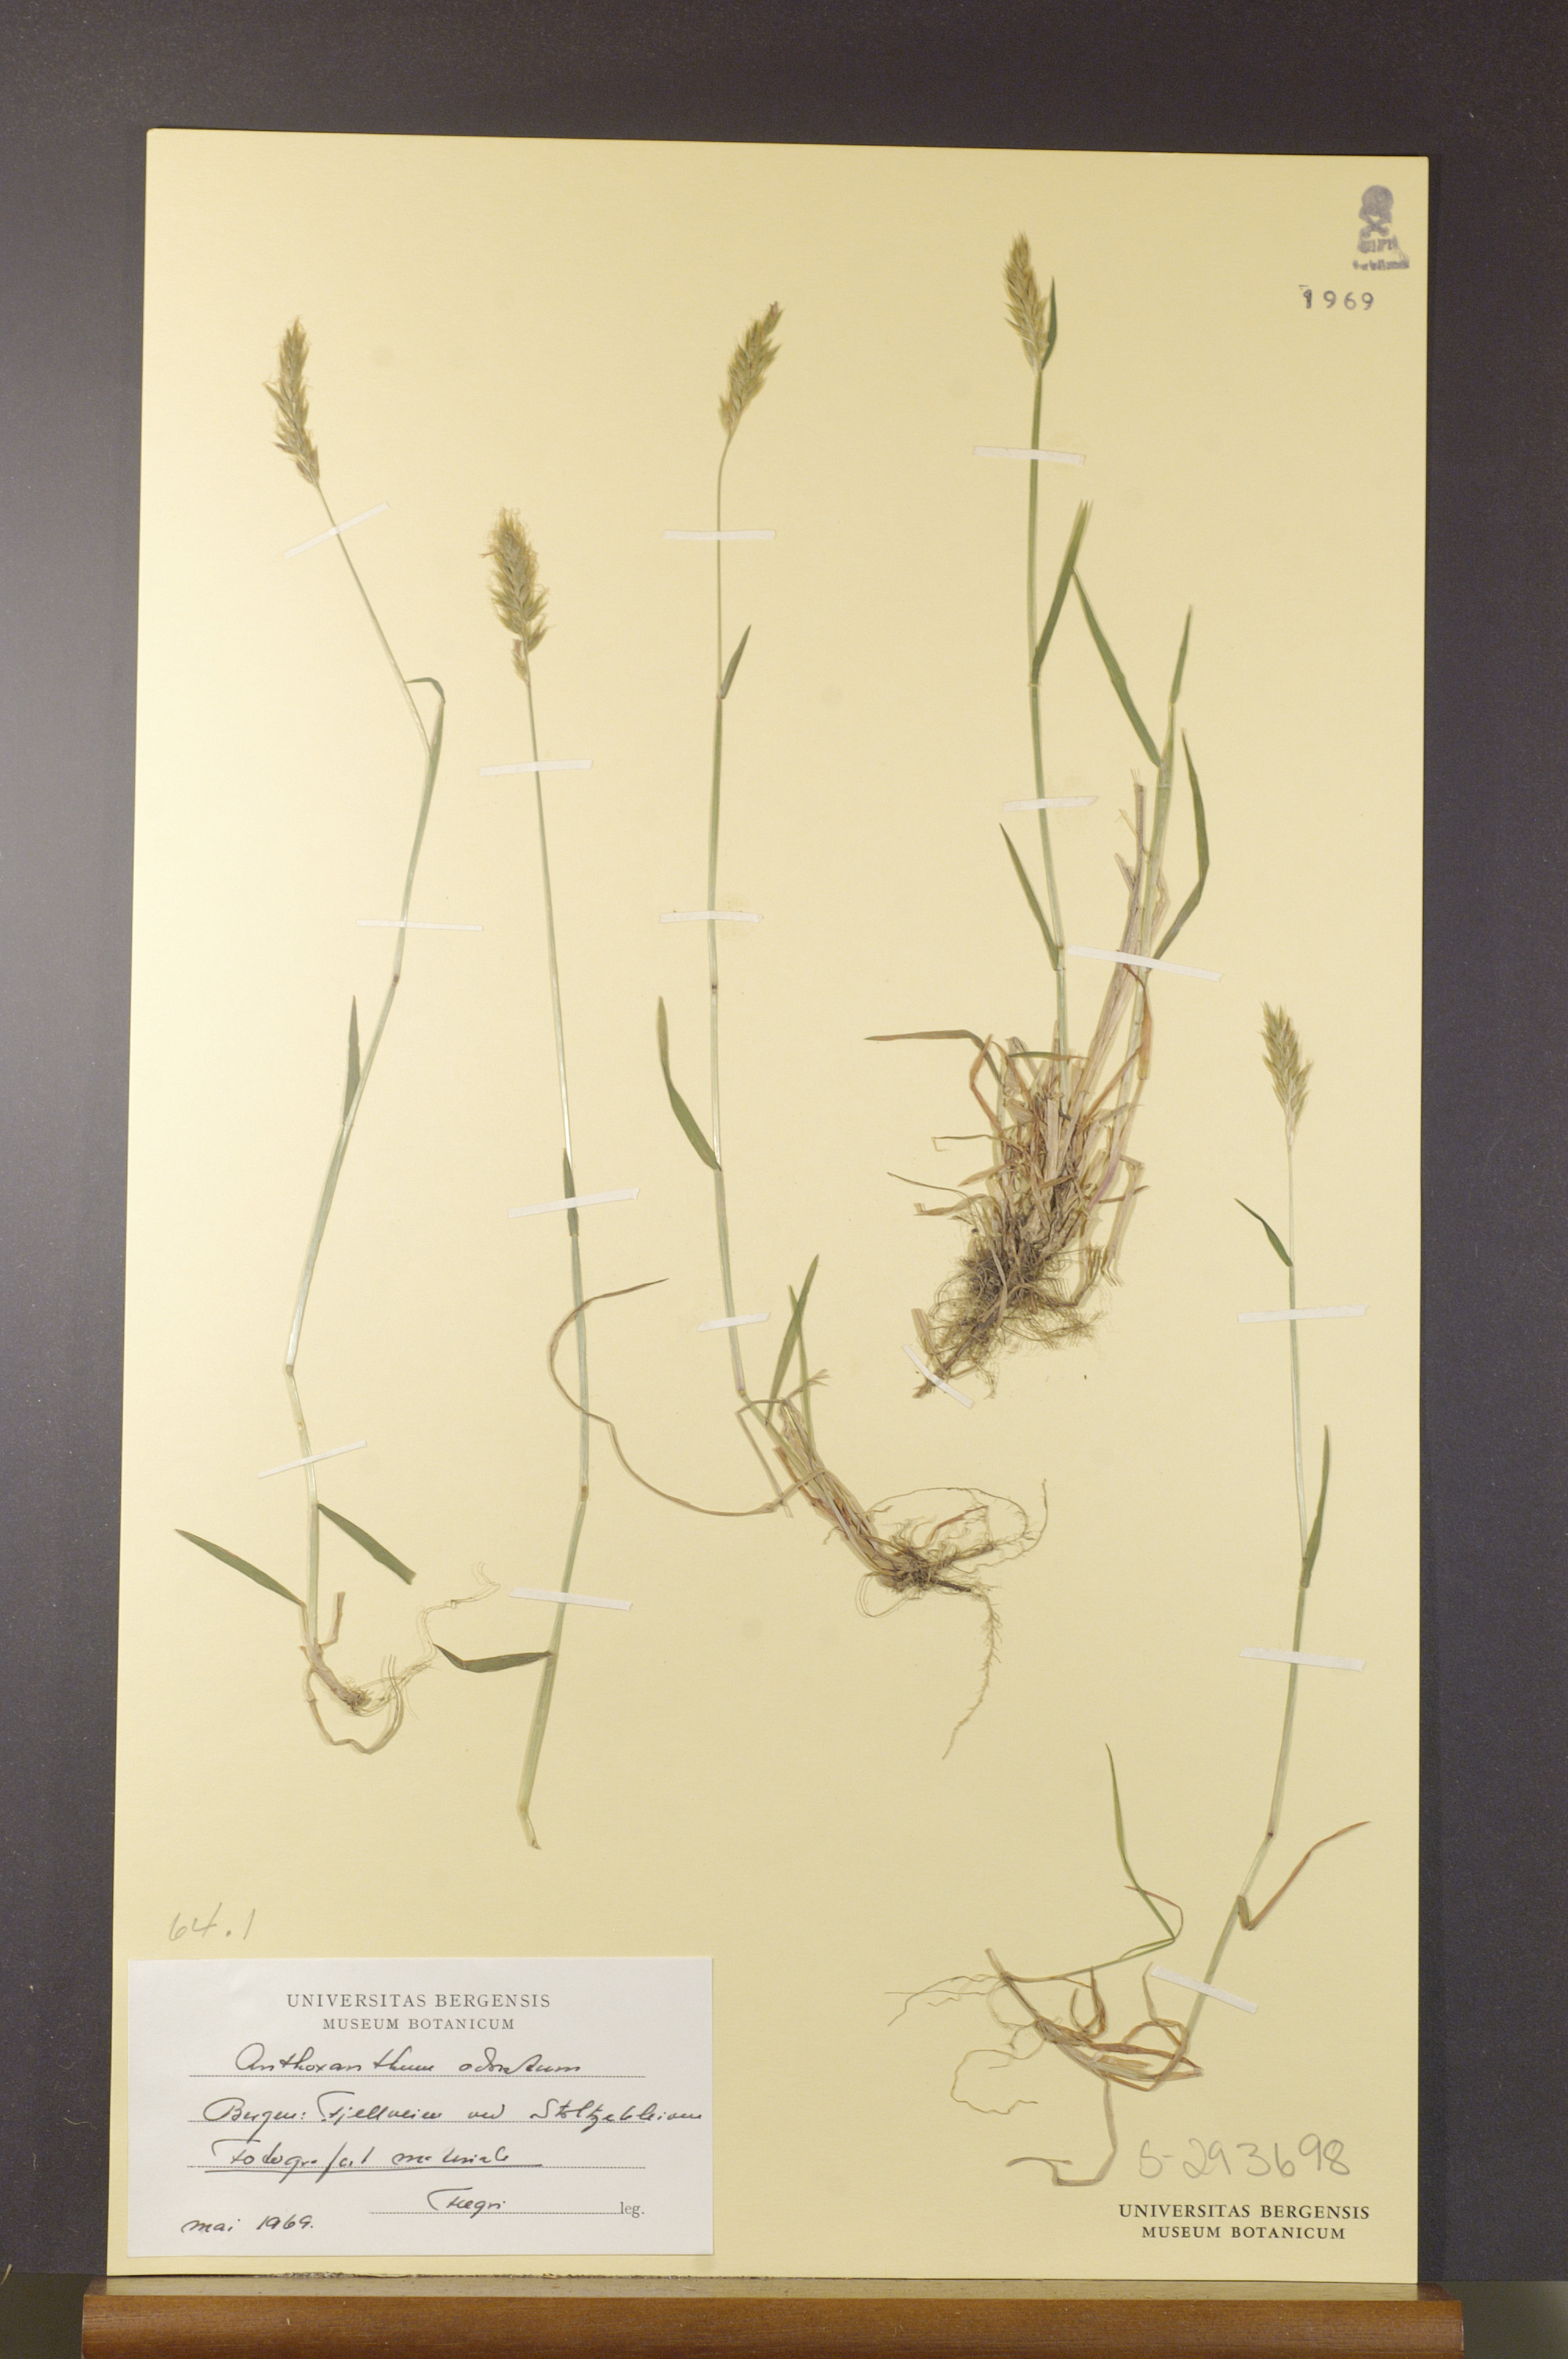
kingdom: Plantae
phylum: Tracheophyta
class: Liliopsida
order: Poales
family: Poaceae
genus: Anthoxanthum
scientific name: Anthoxanthum odoratum
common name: Sweet vernalgrass
